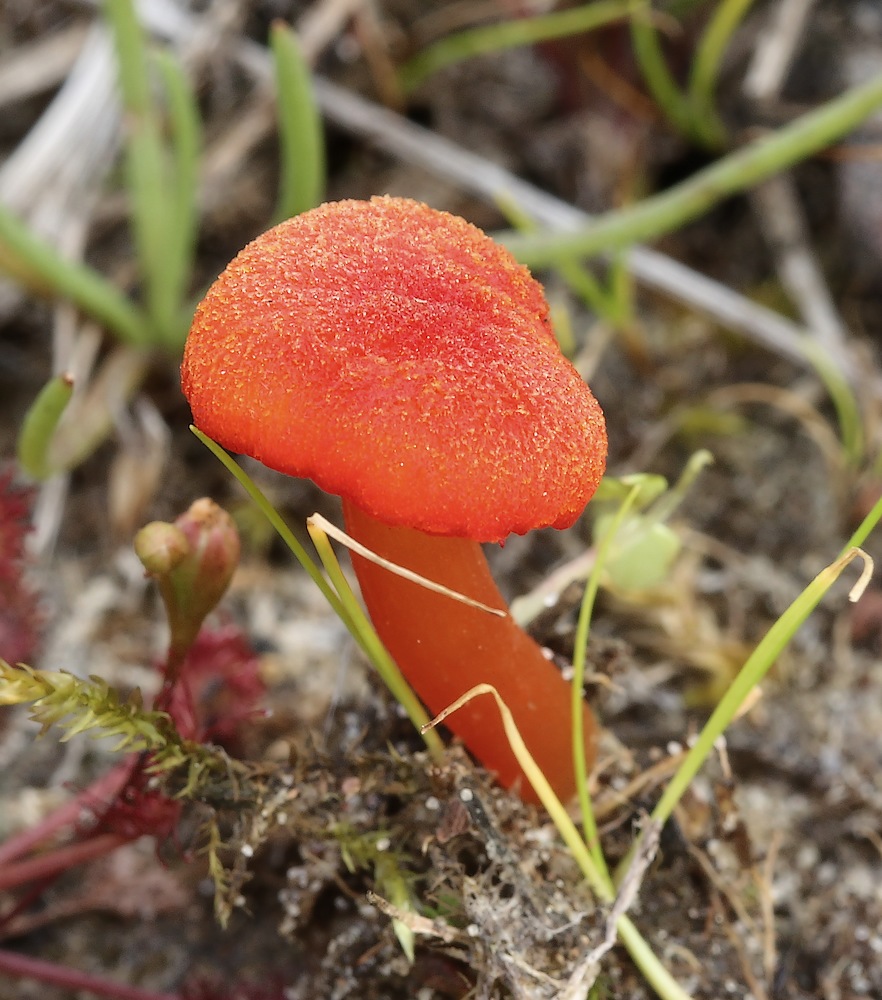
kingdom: Fungi
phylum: Basidiomycota
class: Agaricomycetes
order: Agaricales
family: Hygrophoraceae
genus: Hygrocybe
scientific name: Hygrocybe substrangulata
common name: kær-vokshat
